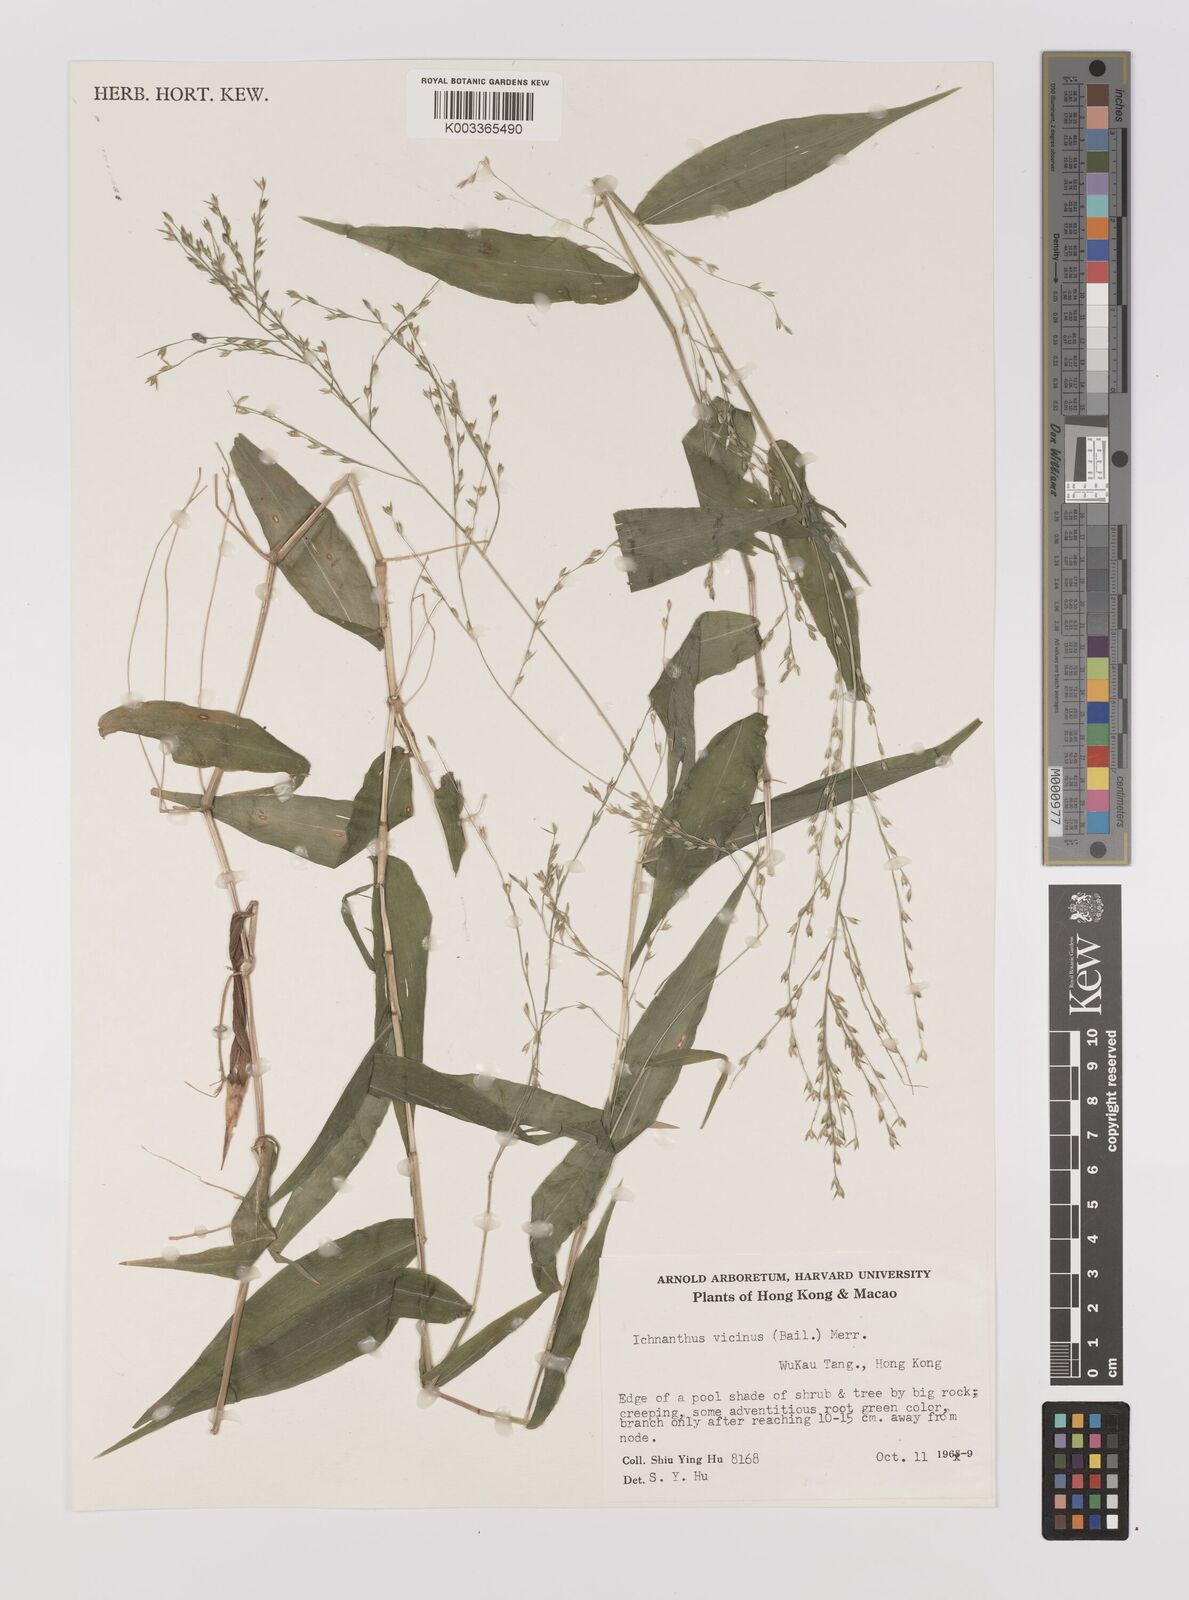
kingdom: Plantae
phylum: Tracheophyta
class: Liliopsida
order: Poales
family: Poaceae
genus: Ichnanthus
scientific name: Ichnanthus pallens
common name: Water grass
